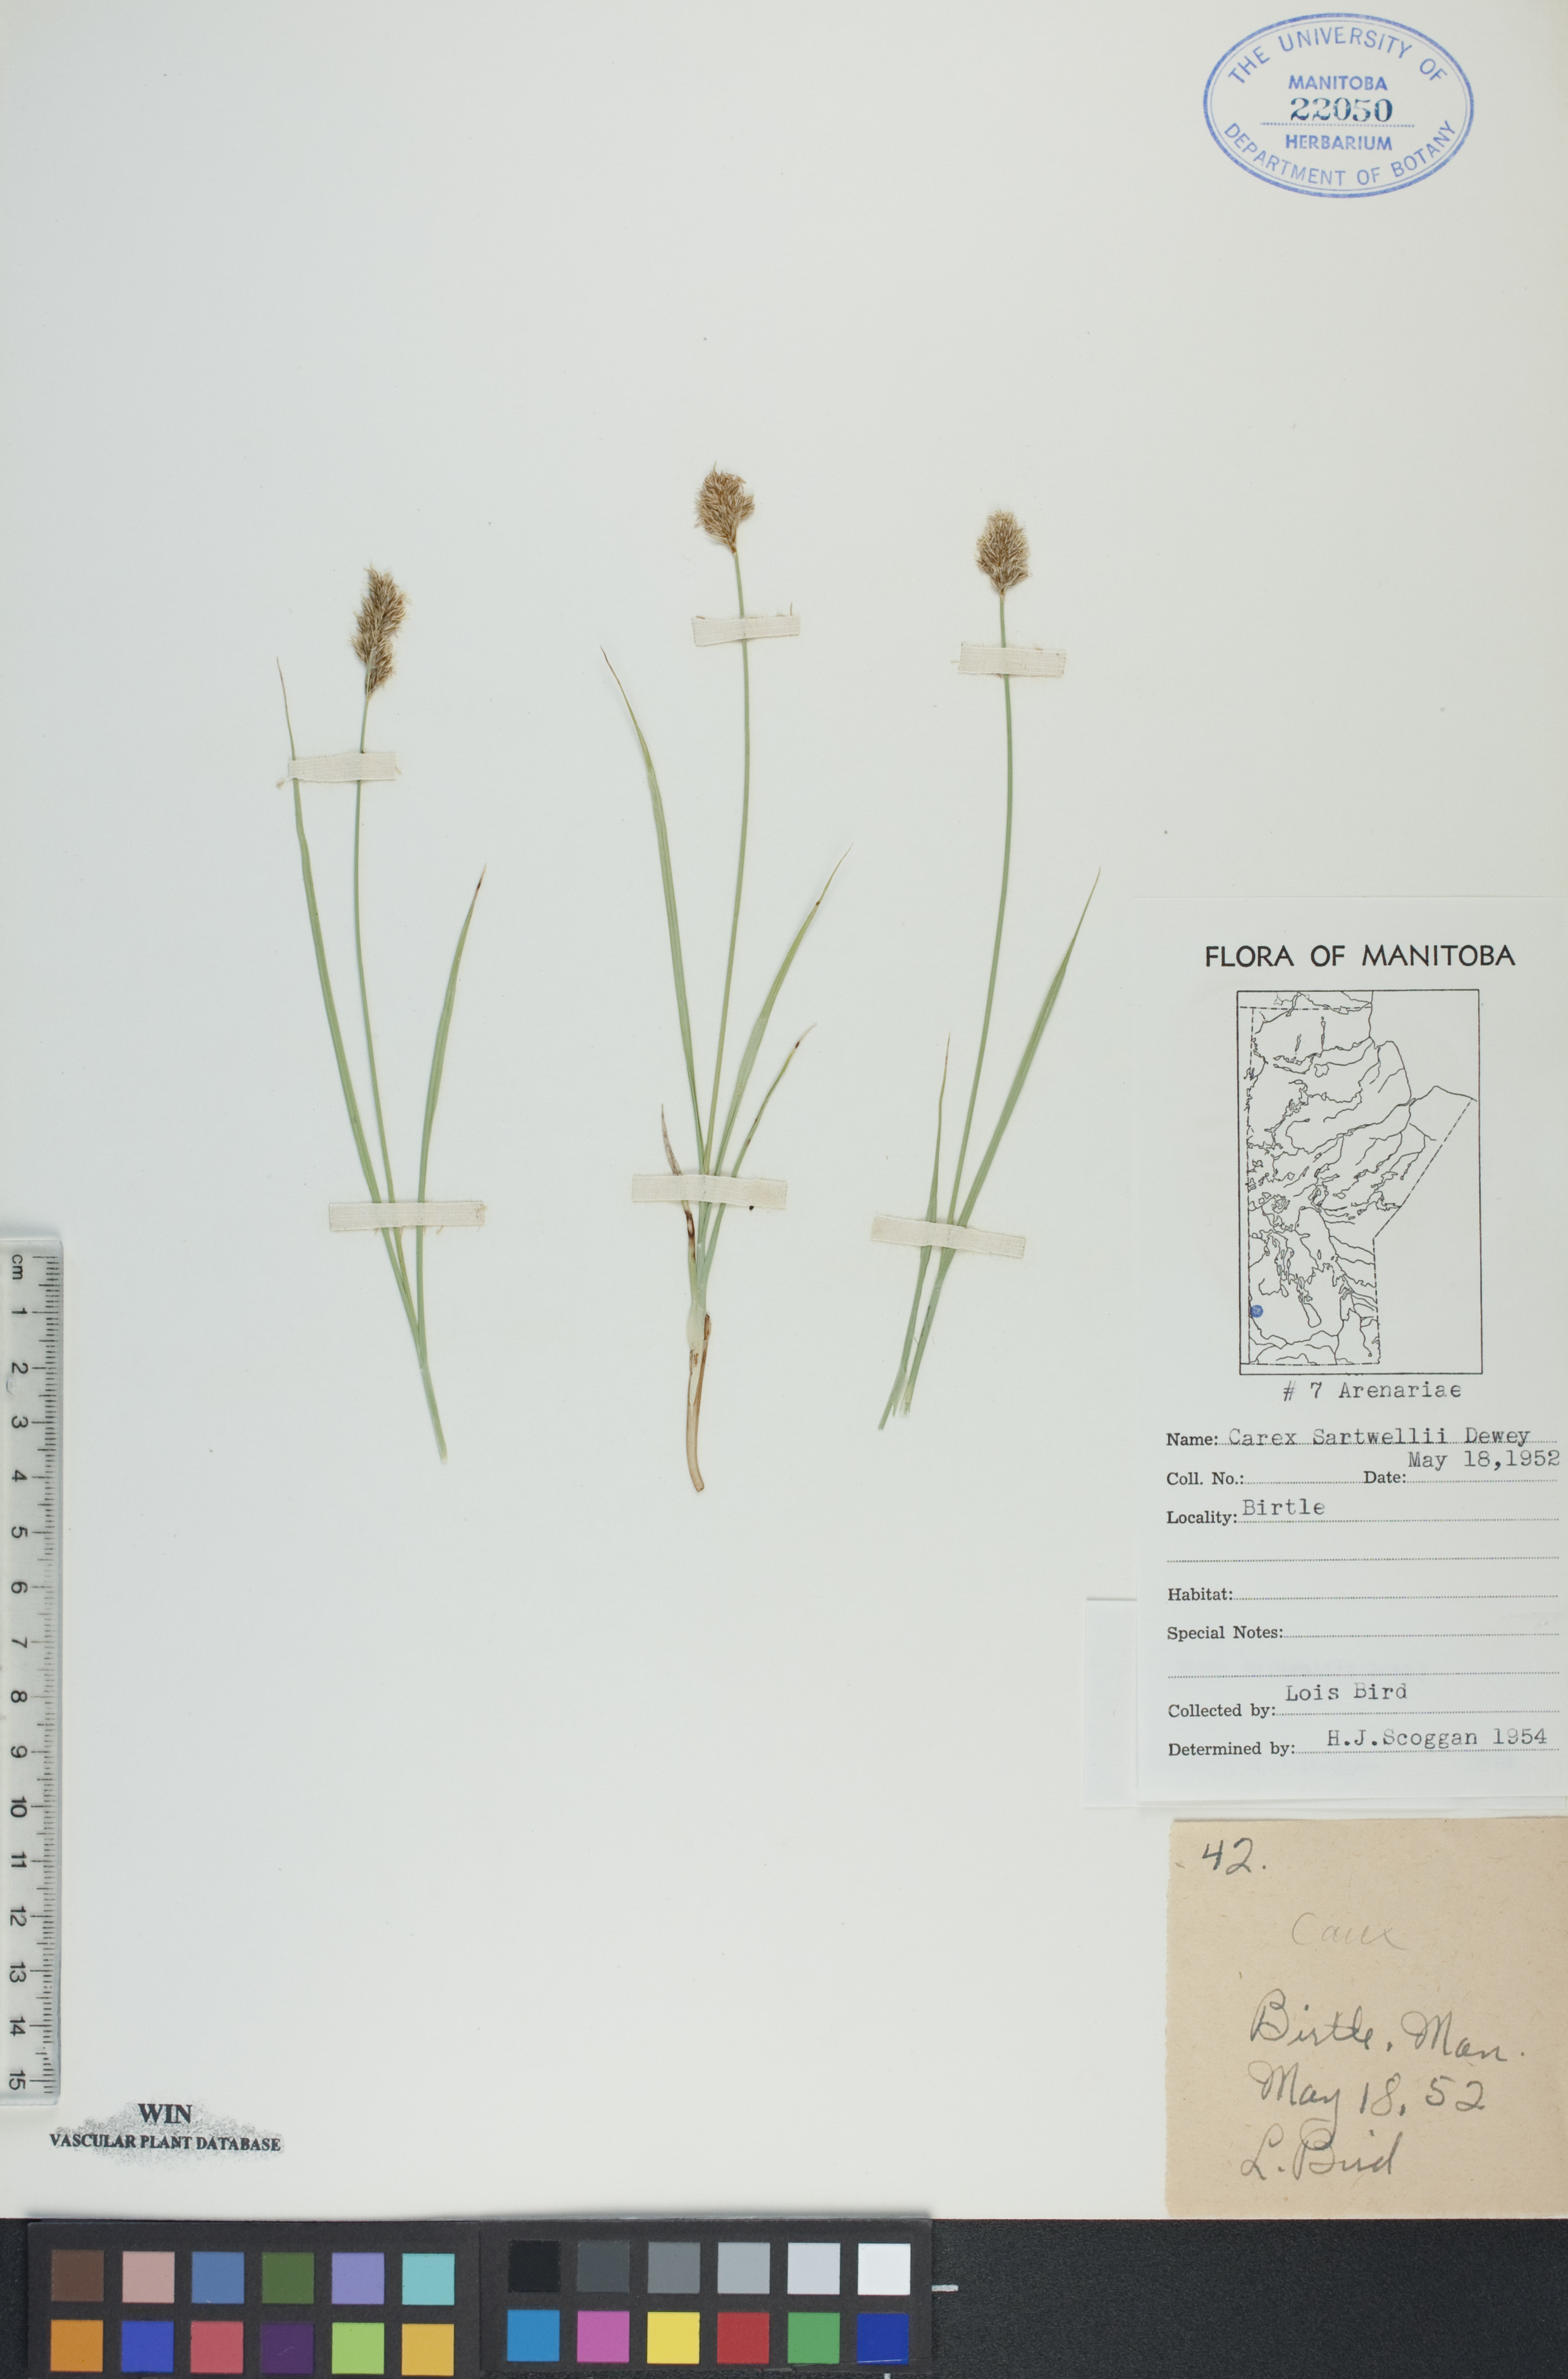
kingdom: Plantae
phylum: Tracheophyta
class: Liliopsida
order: Poales
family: Cyperaceae
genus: Carex
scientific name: Carex sartwellii
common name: Sartwell's sedge
